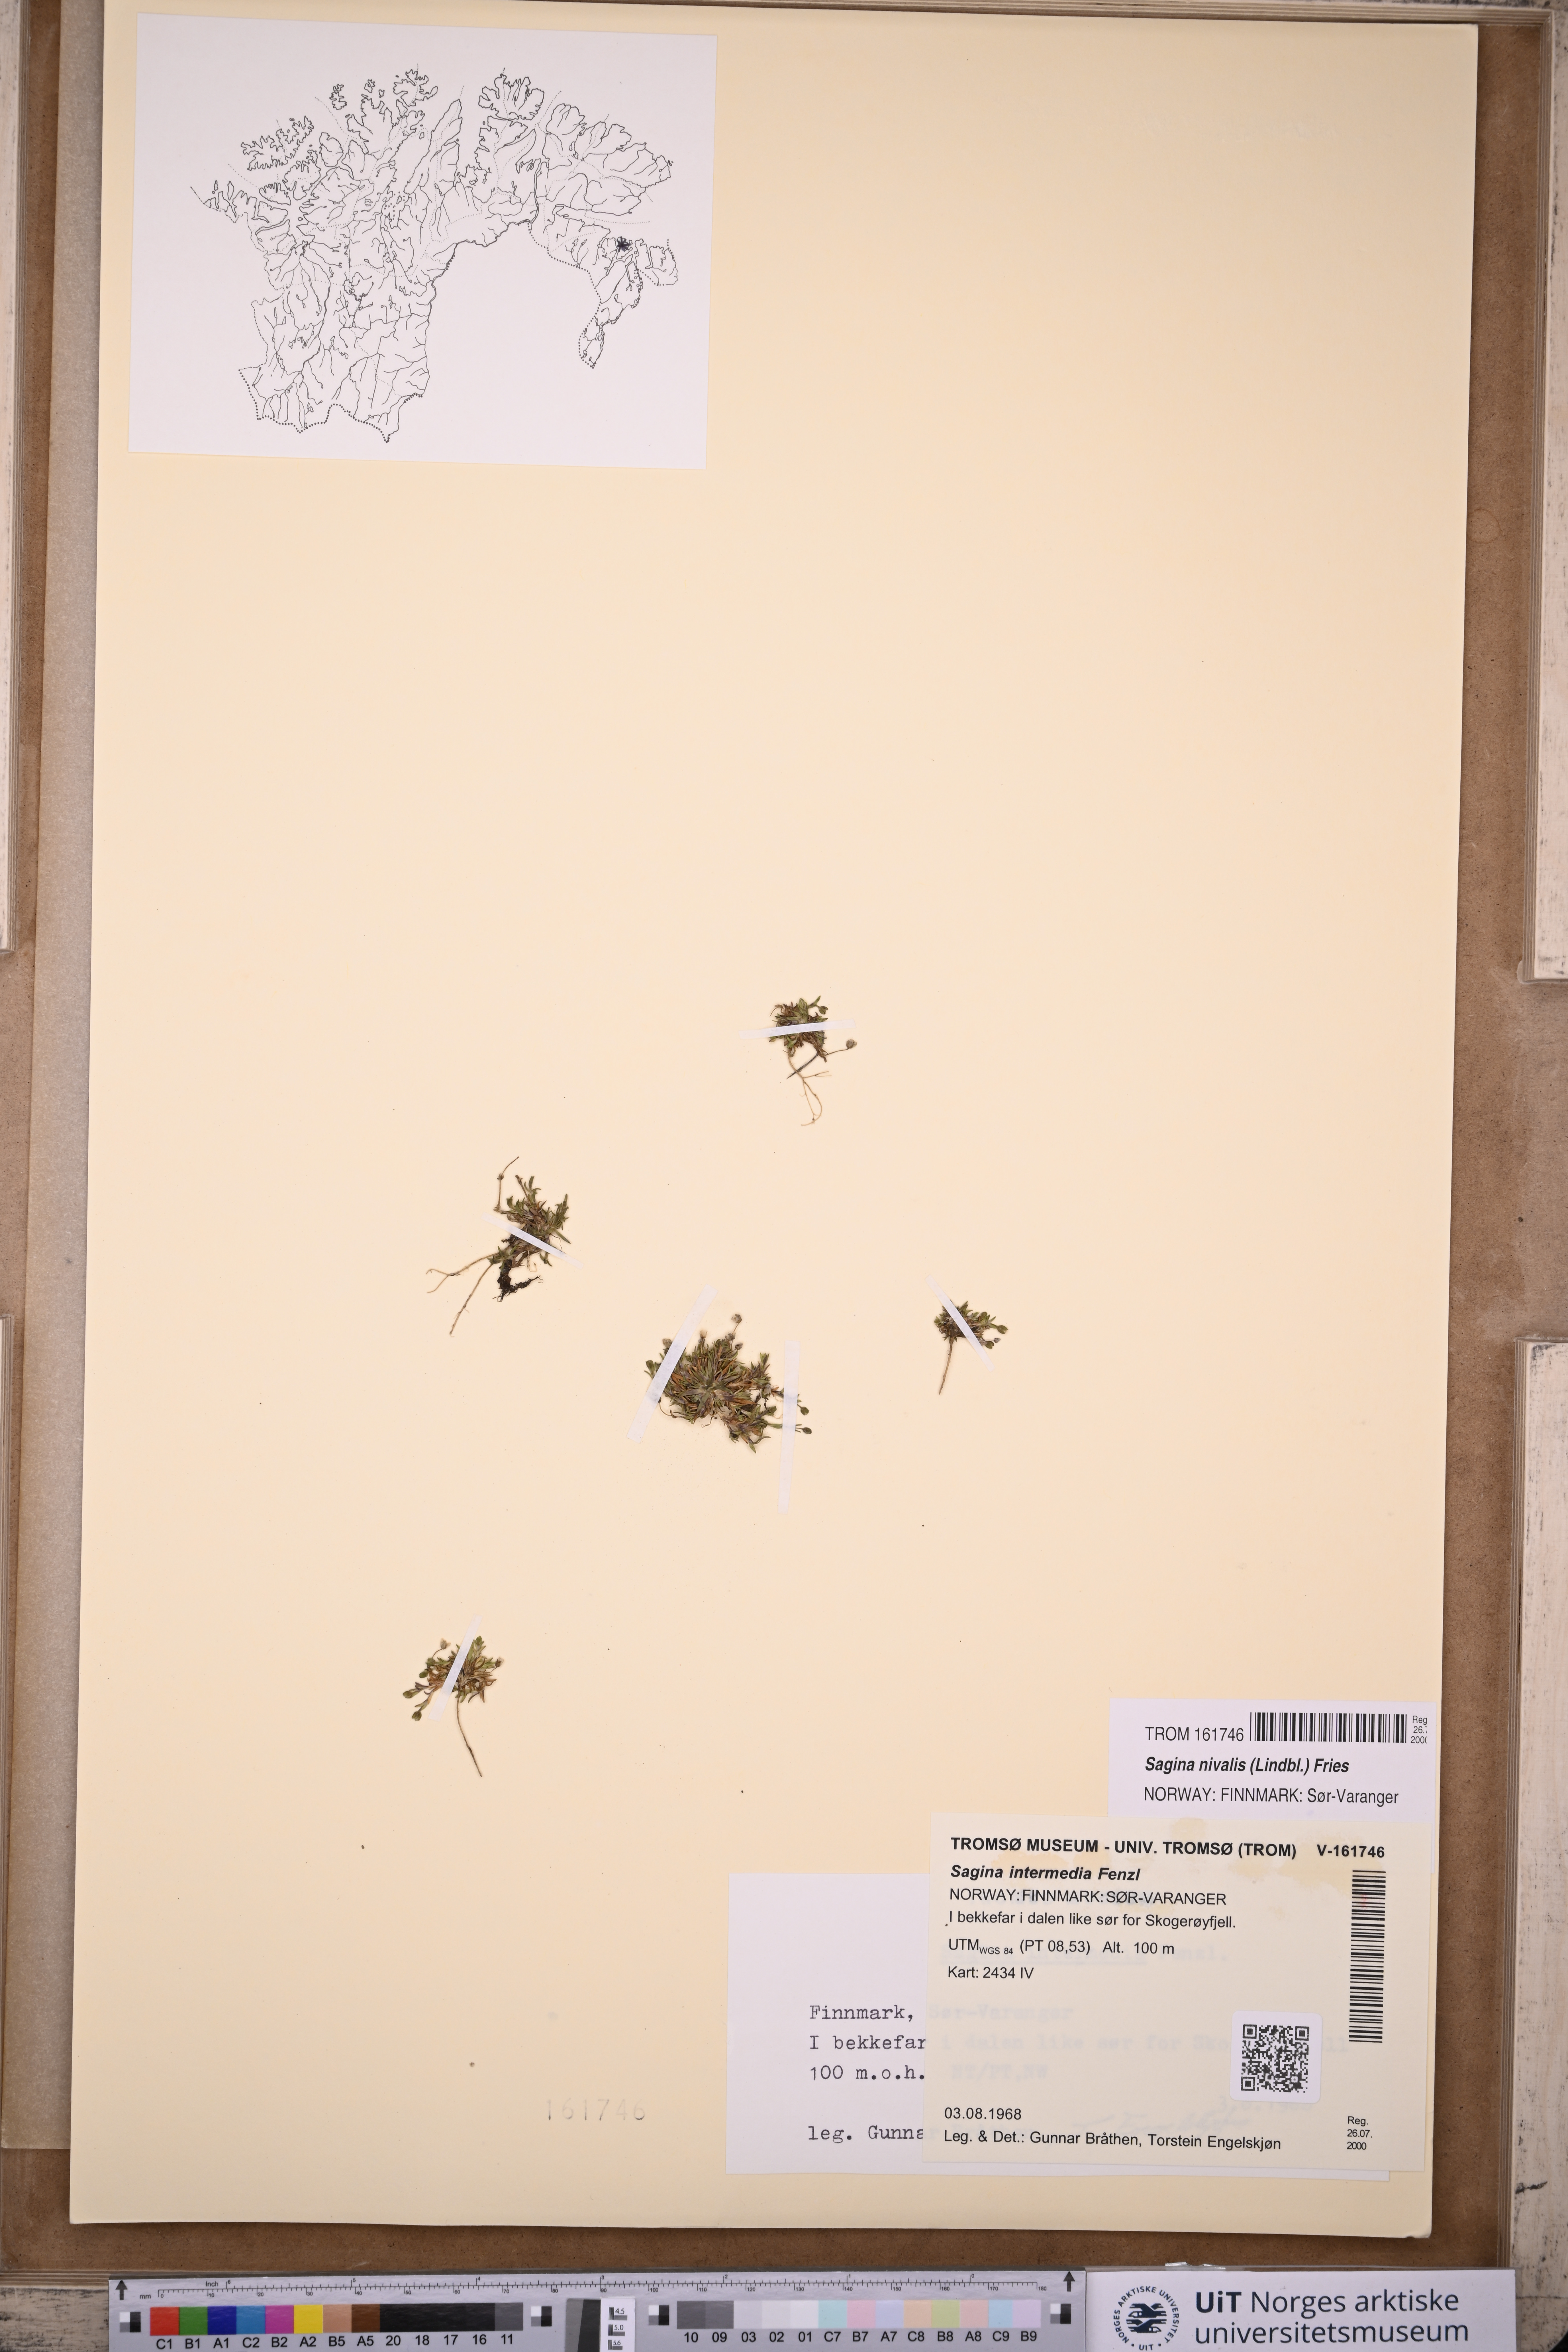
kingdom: Plantae
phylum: Tracheophyta
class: Magnoliopsida
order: Caryophyllales
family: Caryophyllaceae
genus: Sagina
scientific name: Sagina nivalis
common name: Snow pearlwort
